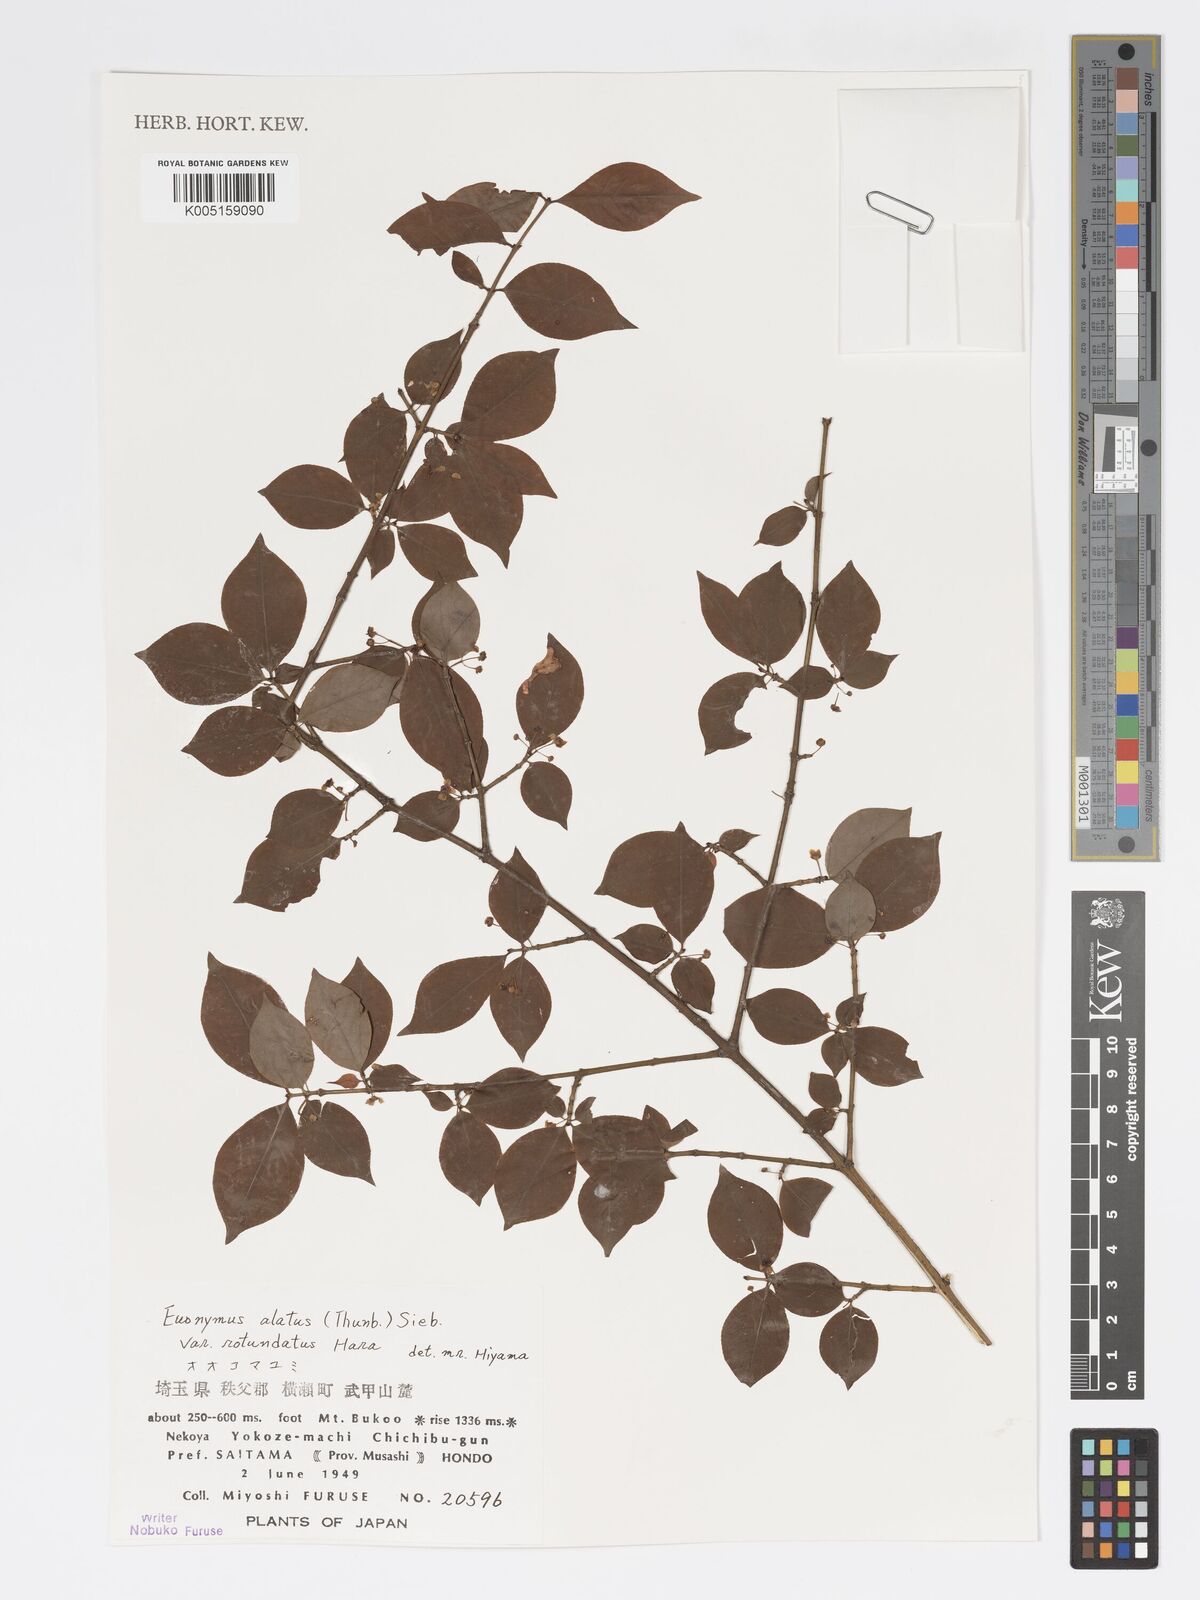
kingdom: Plantae
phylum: Tracheophyta
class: Magnoliopsida
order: Celastrales
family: Celastraceae
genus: Euonymus
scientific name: Euonymus
